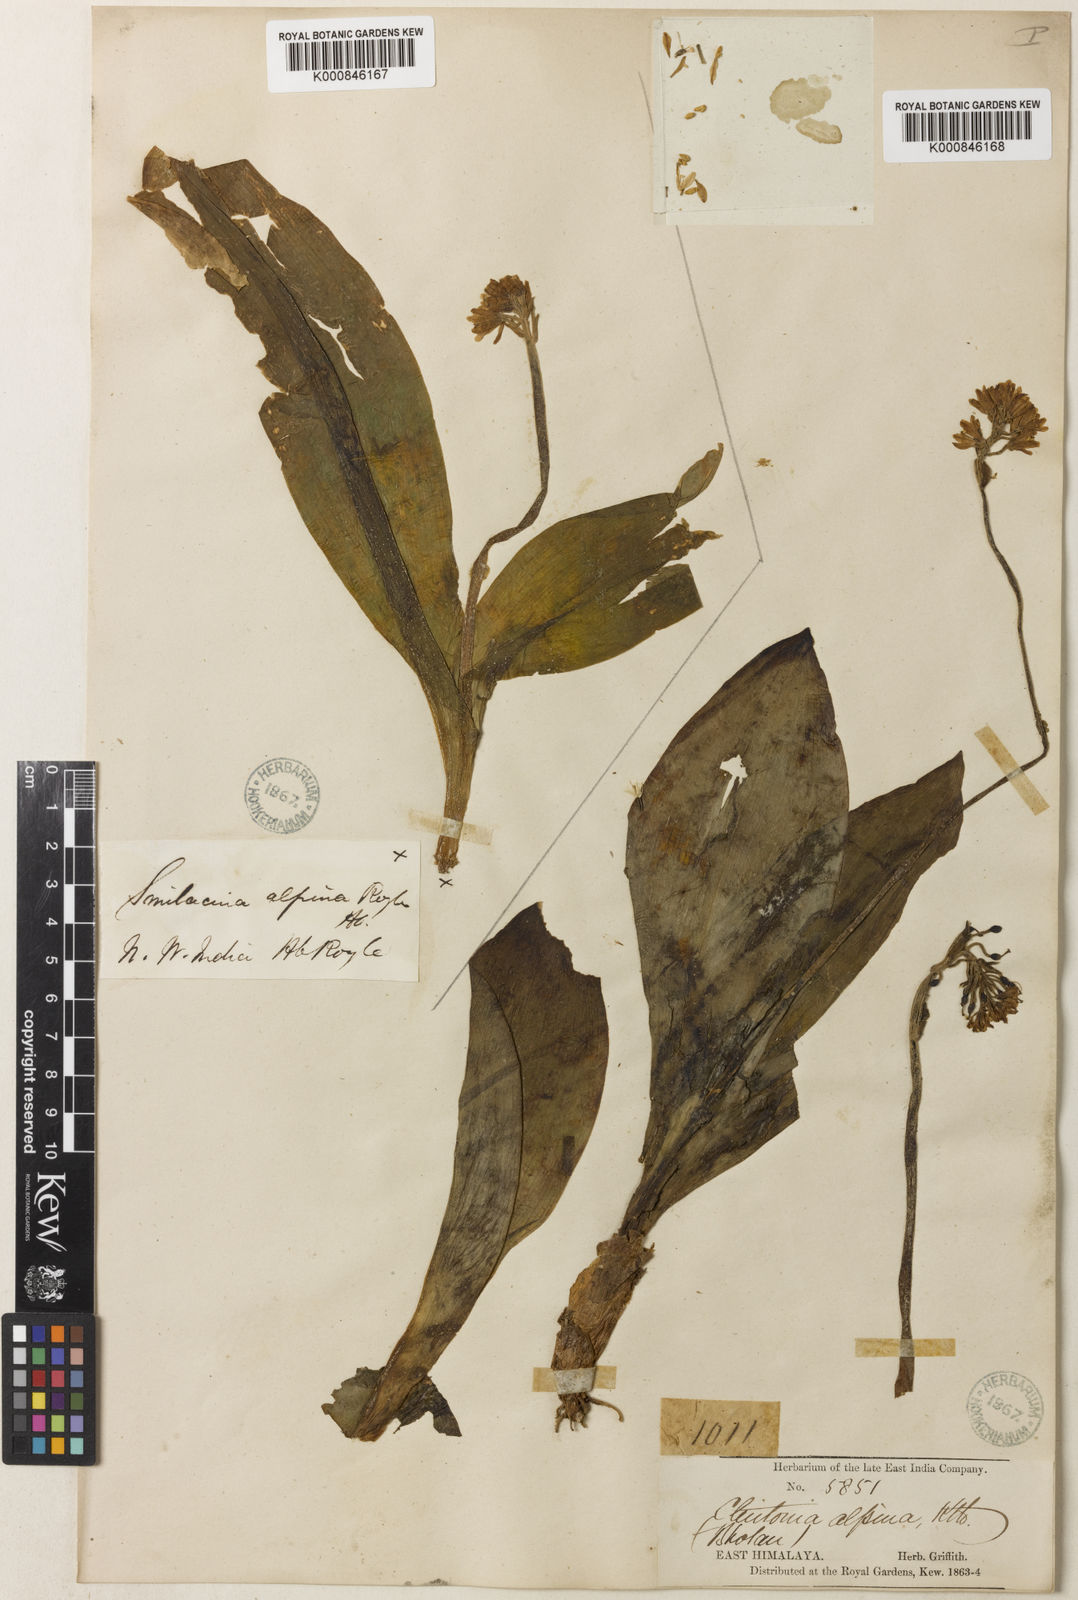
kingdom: Plantae
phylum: Tracheophyta
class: Liliopsida
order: Liliales
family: Liliaceae
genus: Clintonia
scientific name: Clintonia udensis
